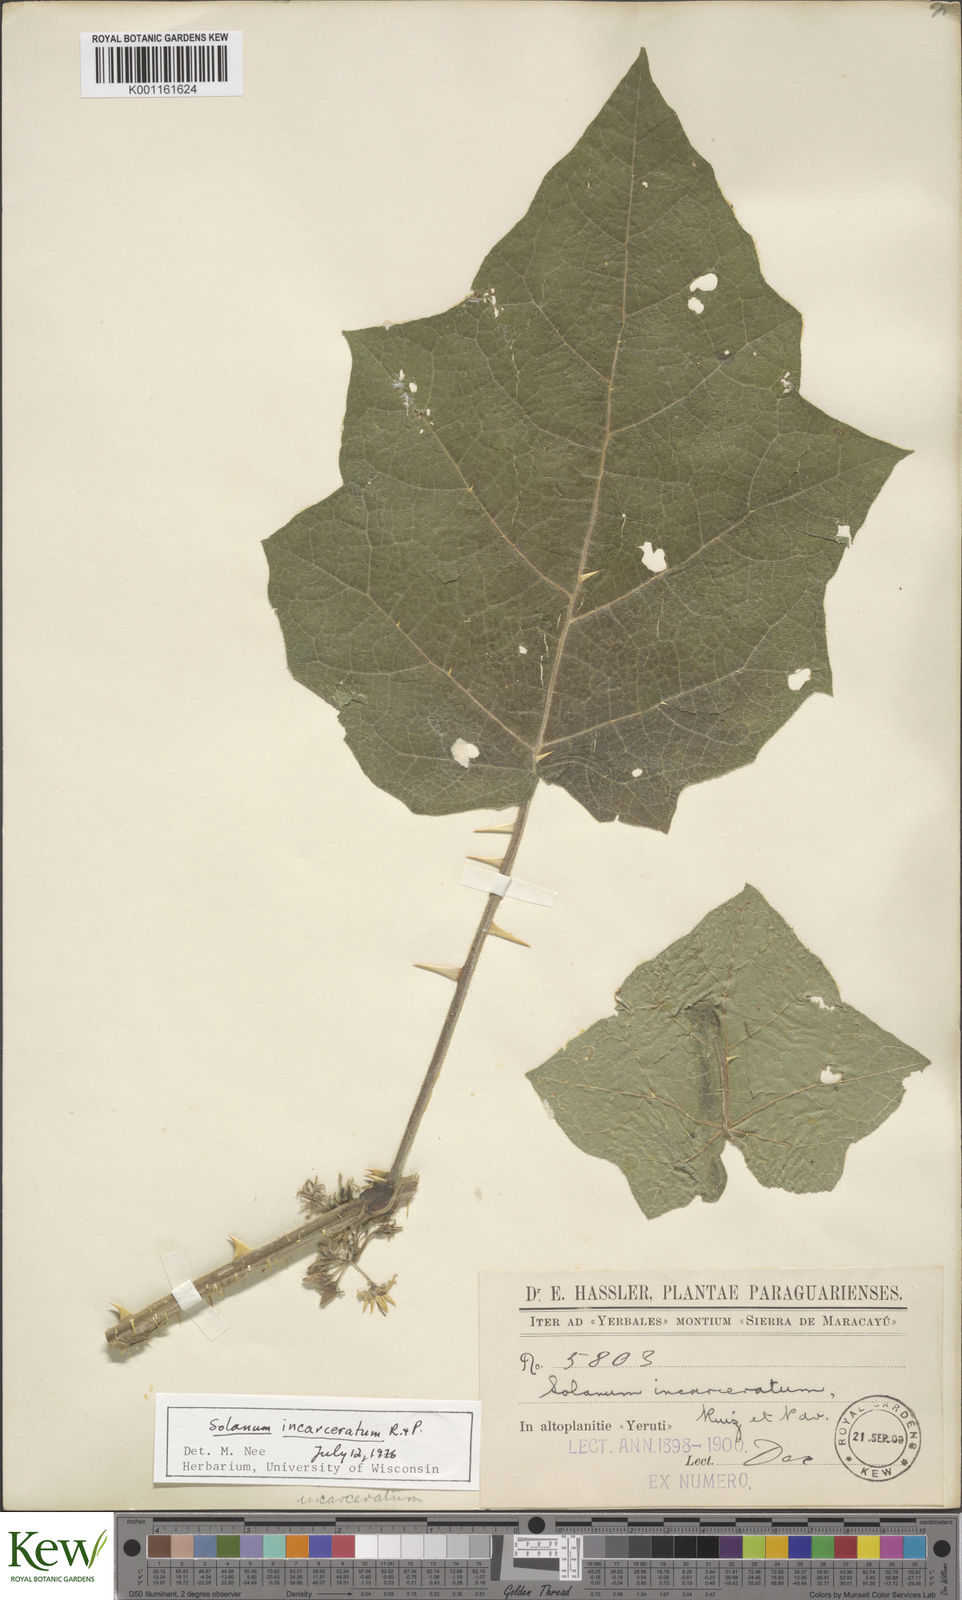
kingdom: Plantae
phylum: Tracheophyta
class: Magnoliopsida
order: Solanales
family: Solanaceae
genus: Solanum
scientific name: Solanum incarceratum
